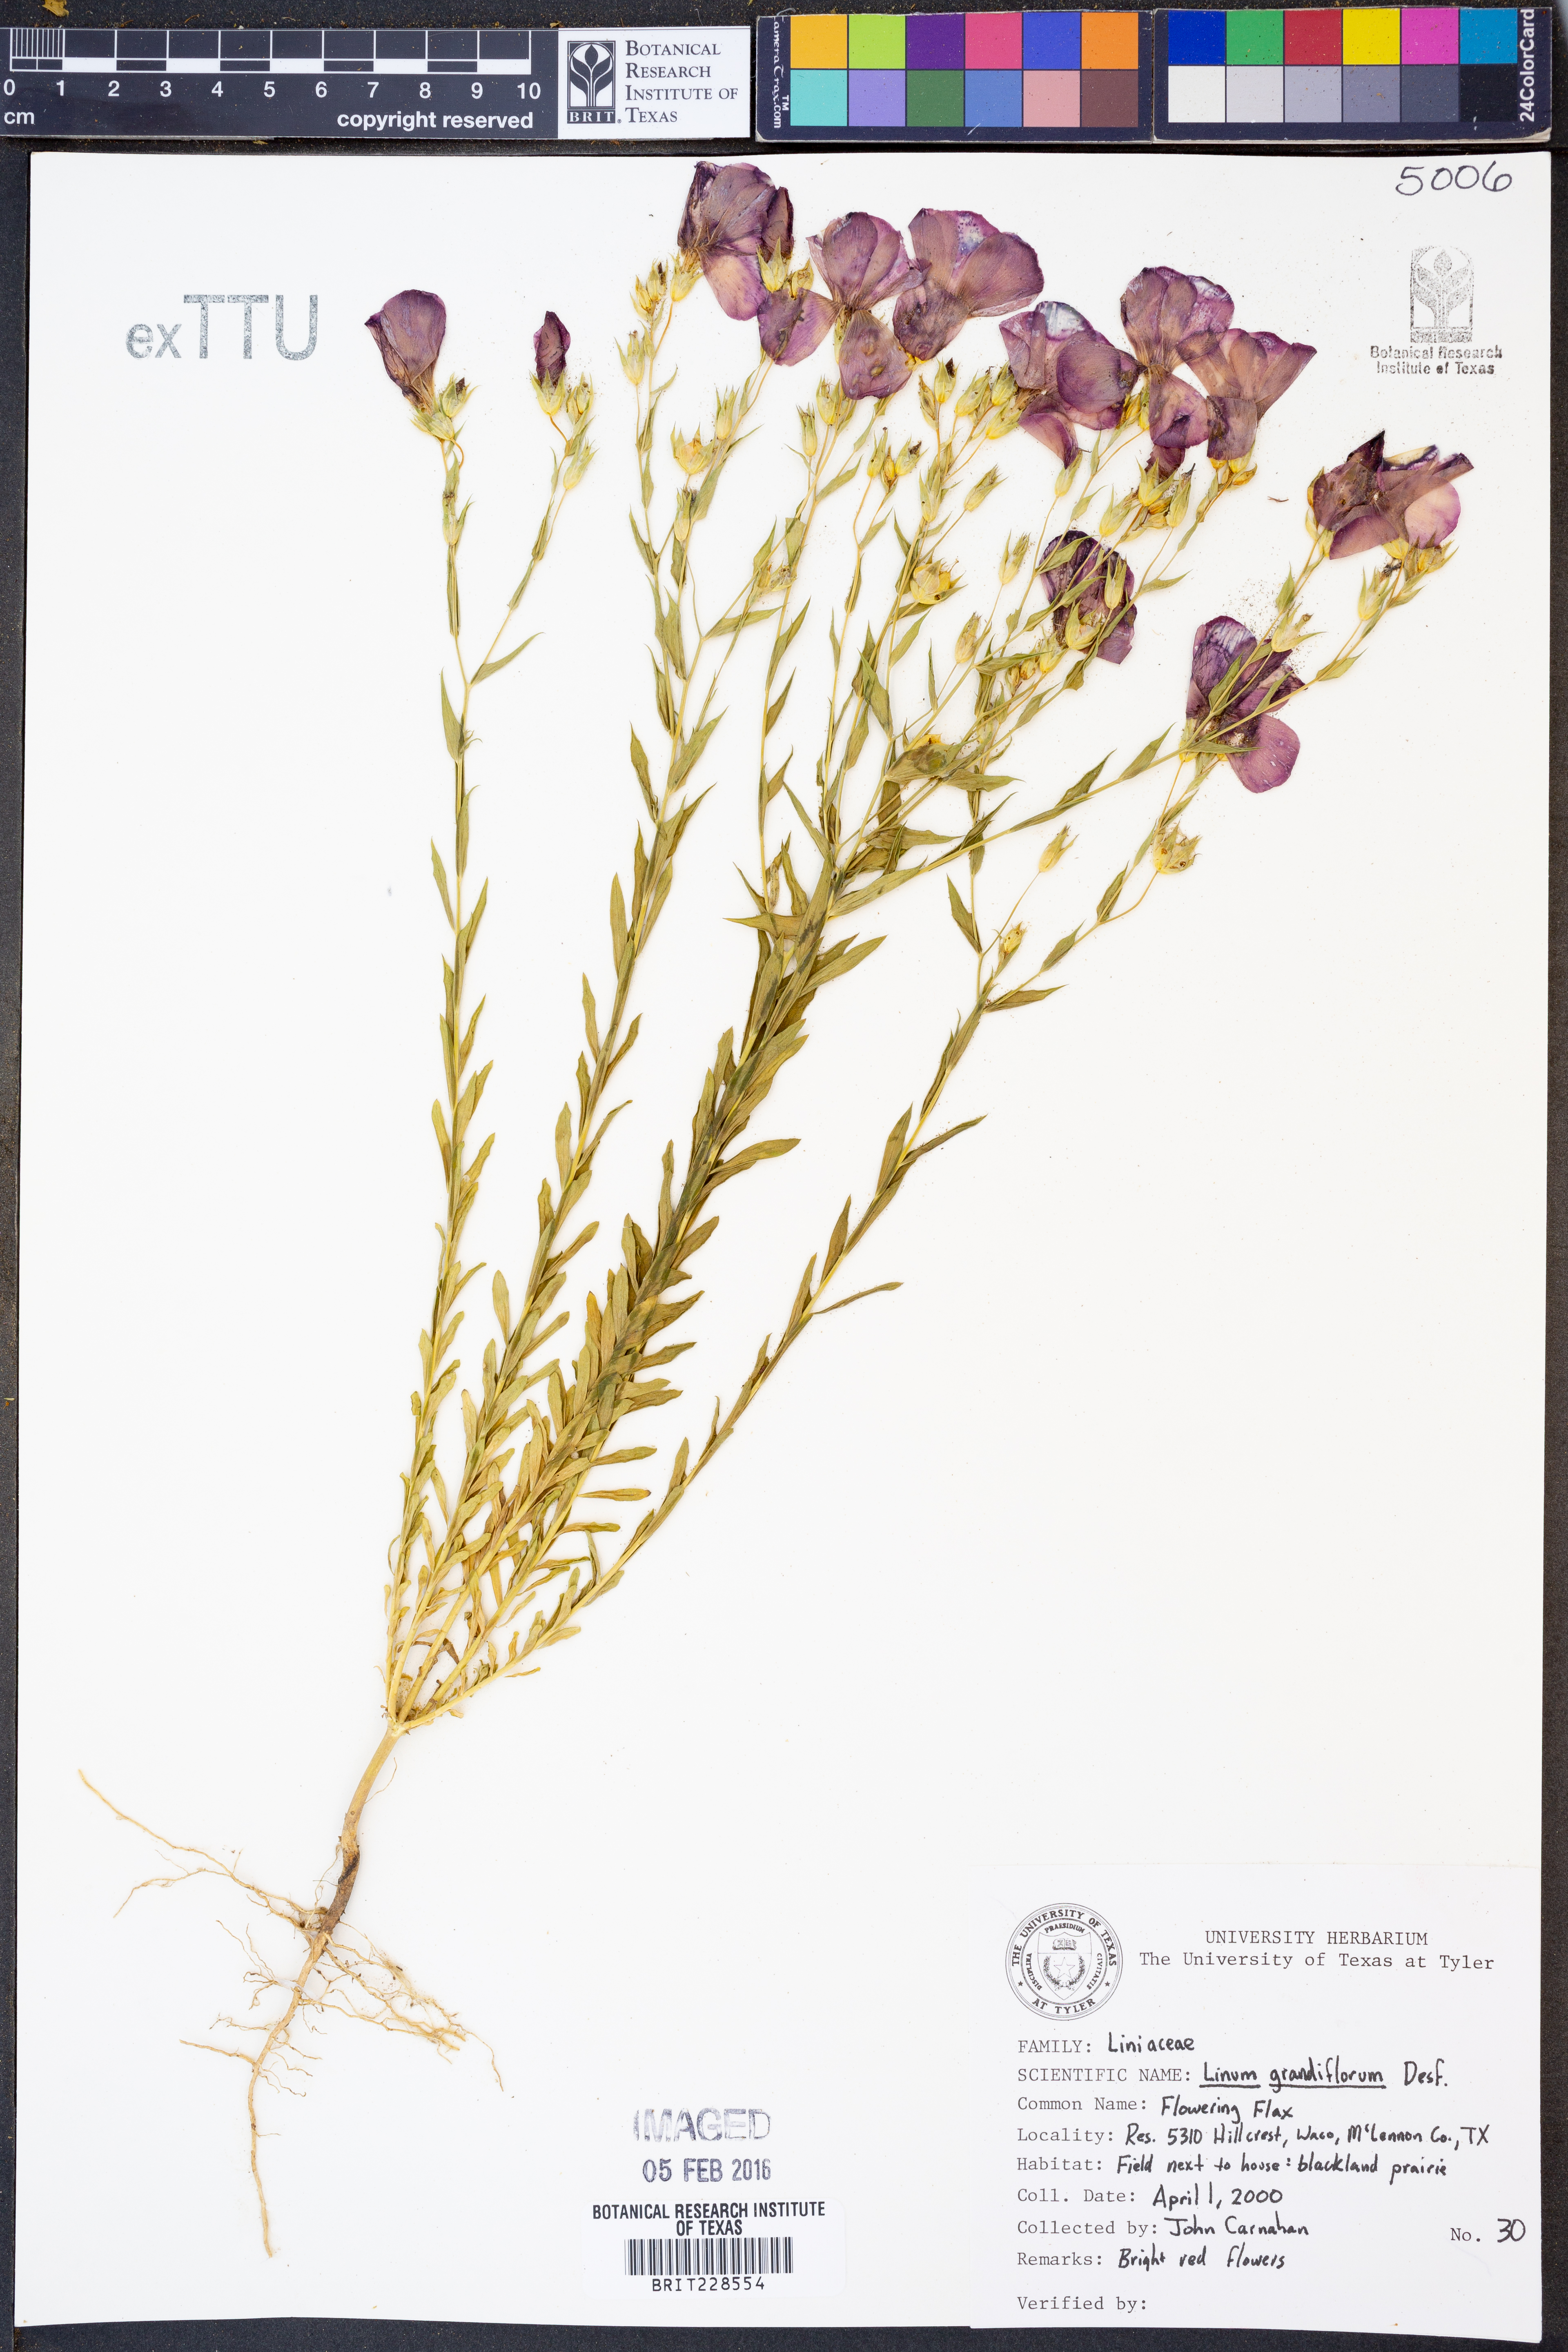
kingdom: Plantae
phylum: Tracheophyta
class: Magnoliopsida
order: Malpighiales
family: Linaceae
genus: Linum
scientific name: Linum grandiflorum
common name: Crimson flax
